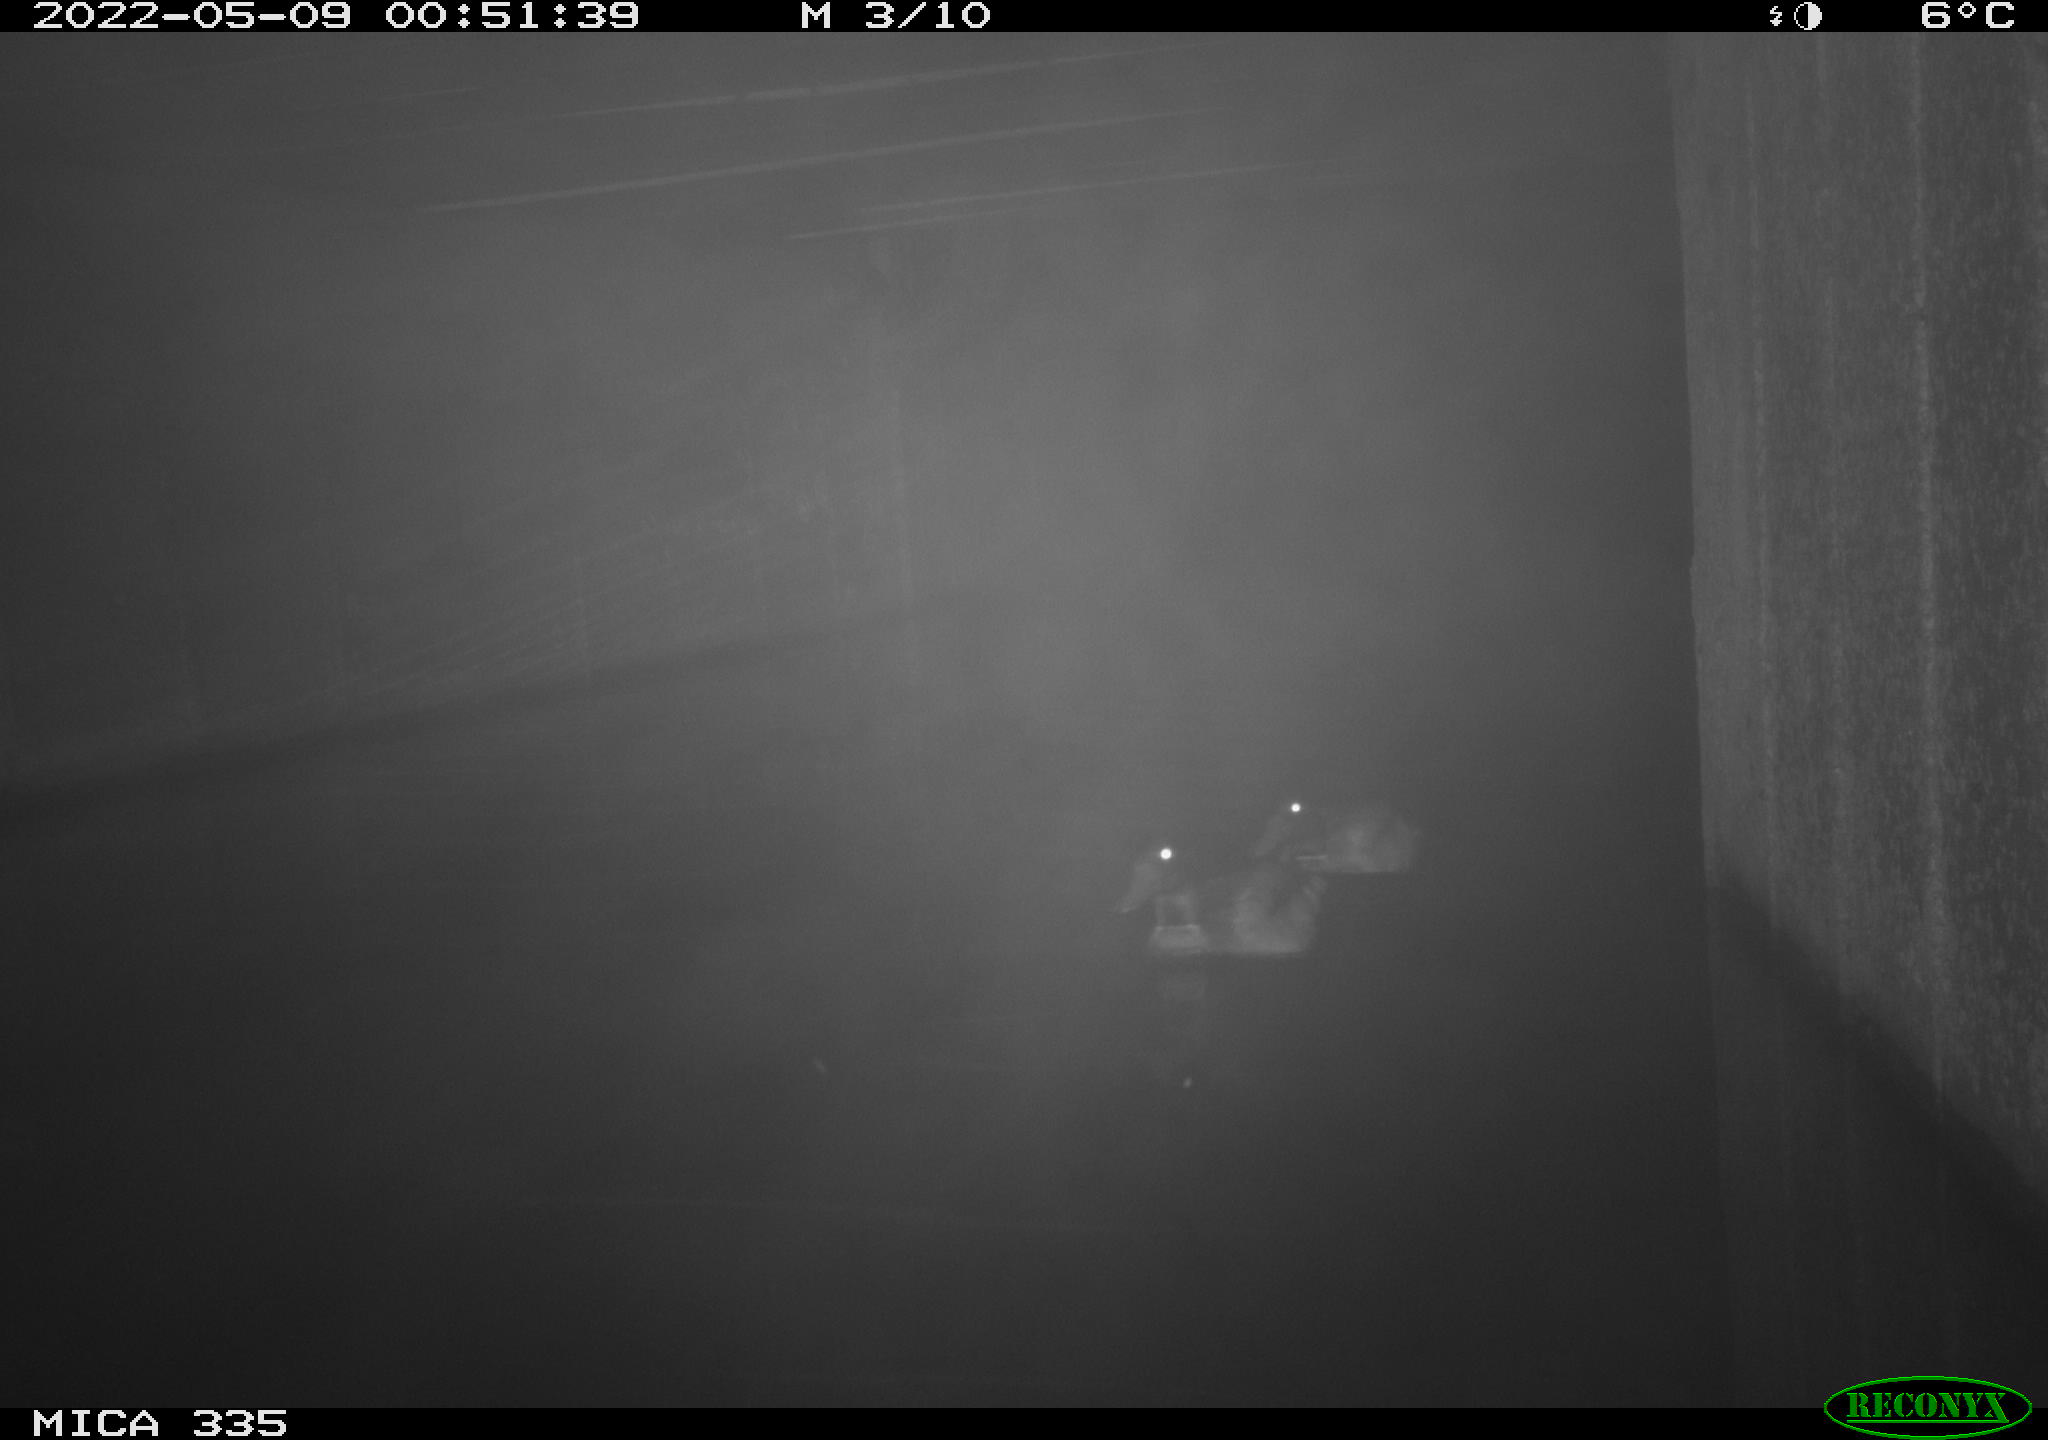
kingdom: Animalia
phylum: Chordata
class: Aves
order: Anseriformes
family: Anatidae
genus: Anas
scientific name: Anas platyrhynchos
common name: Mallard
